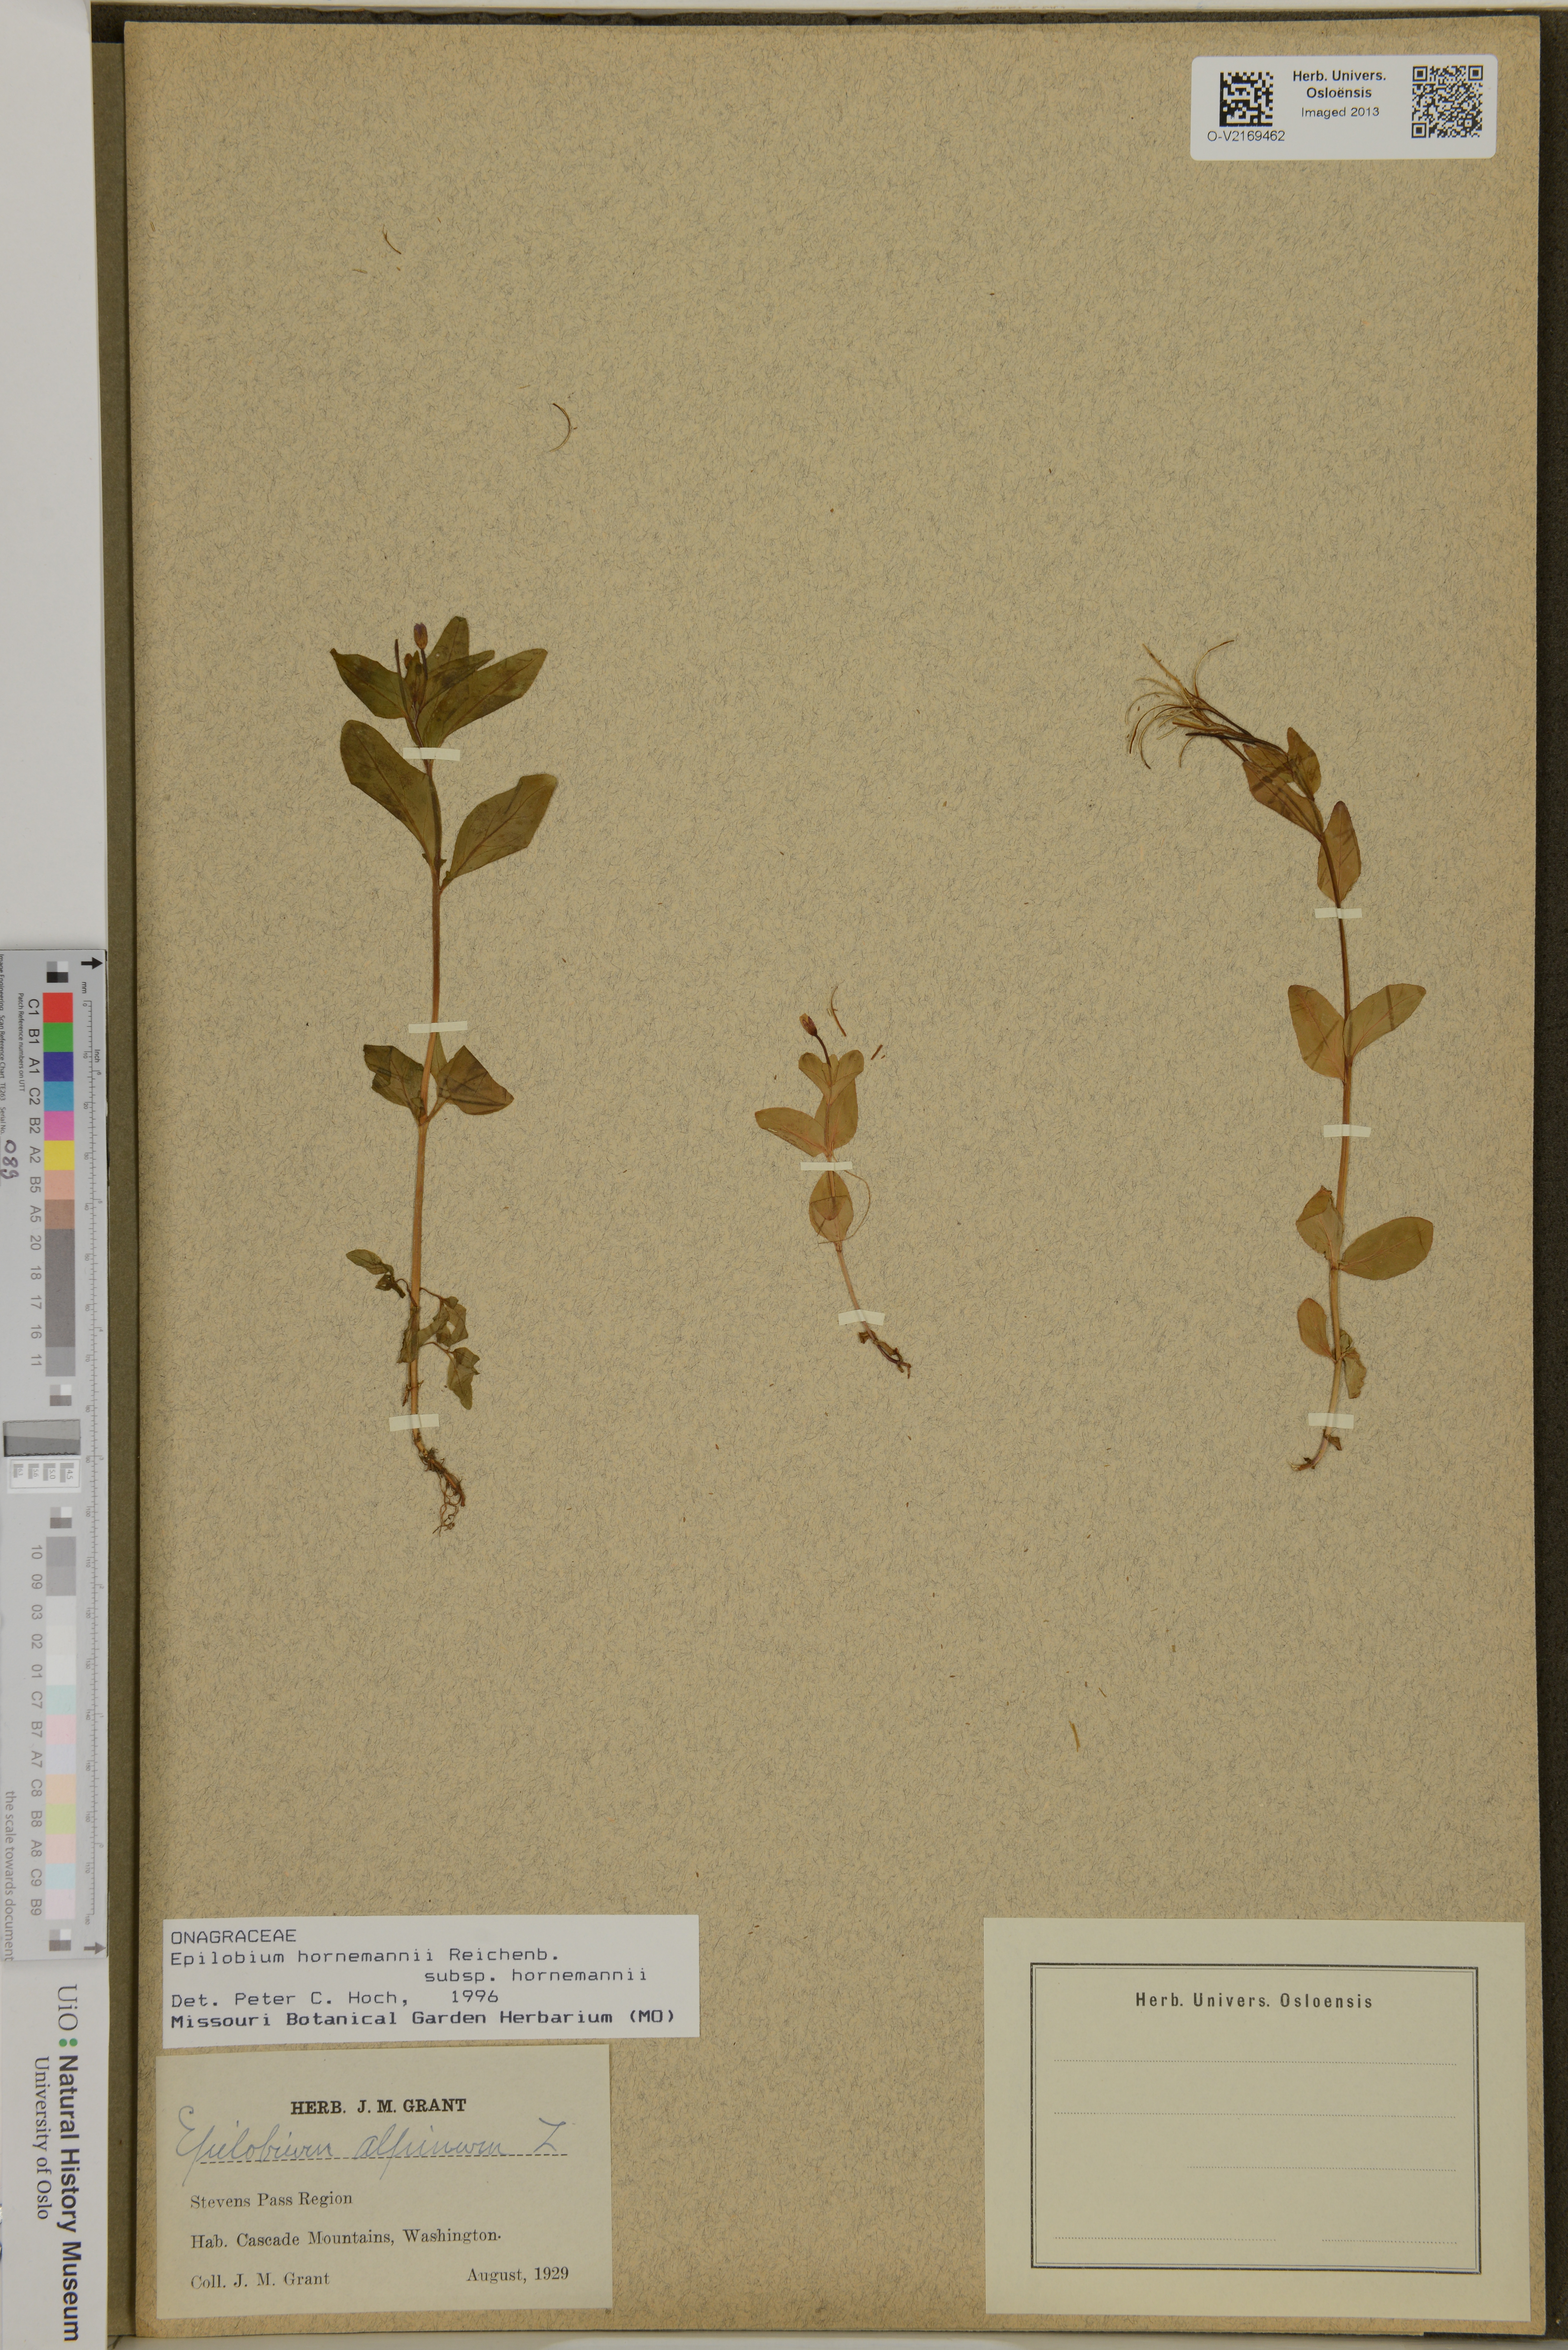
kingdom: Plantae
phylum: Tracheophyta
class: Magnoliopsida
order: Myrtales
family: Onagraceae
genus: Epilobium
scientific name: Epilobium hornemannii
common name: Hornemann's willowherb
